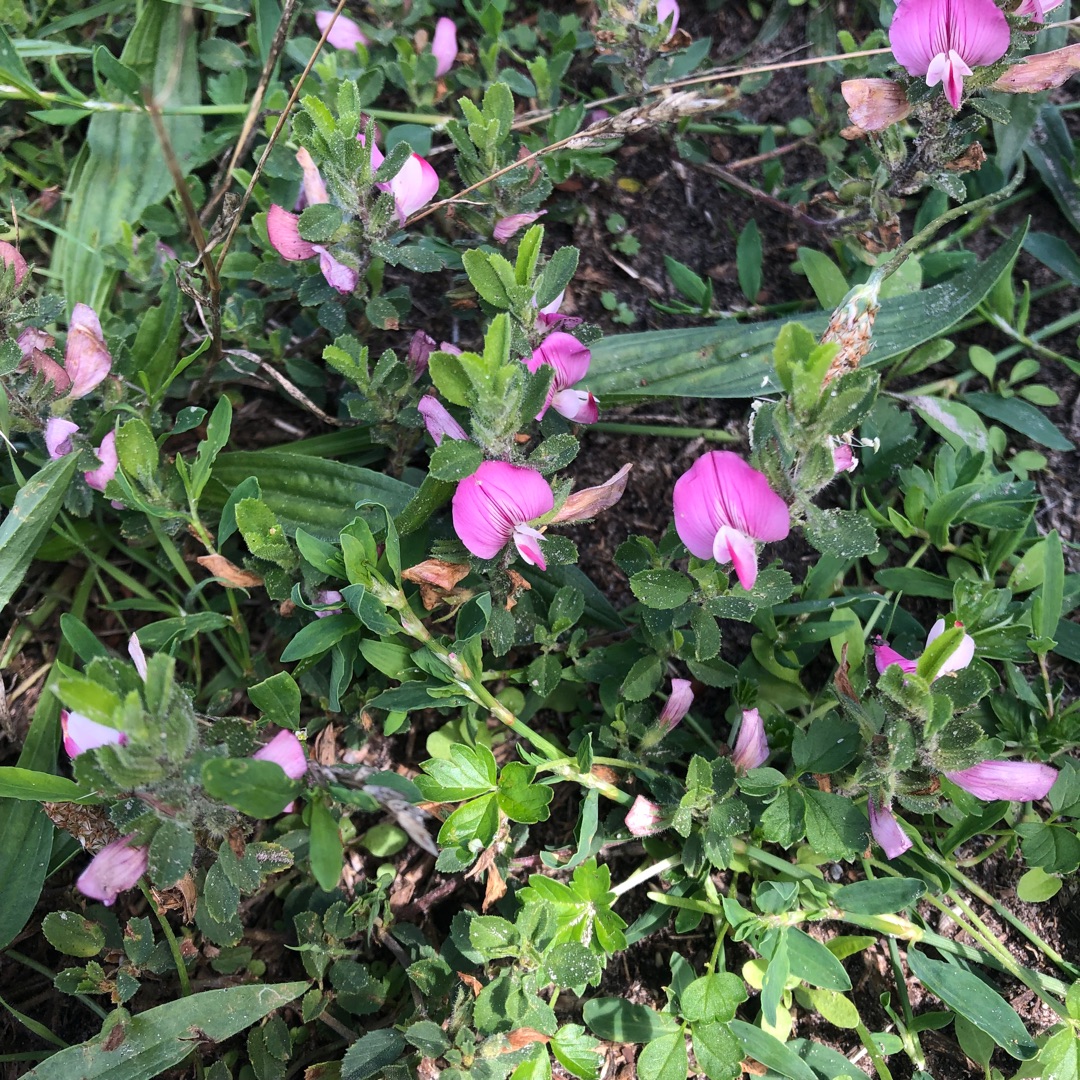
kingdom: Plantae
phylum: Tracheophyta
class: Magnoliopsida
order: Fabales
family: Fabaceae
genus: Ononis
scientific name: Ononis spinosa
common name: Mark-krageklo
